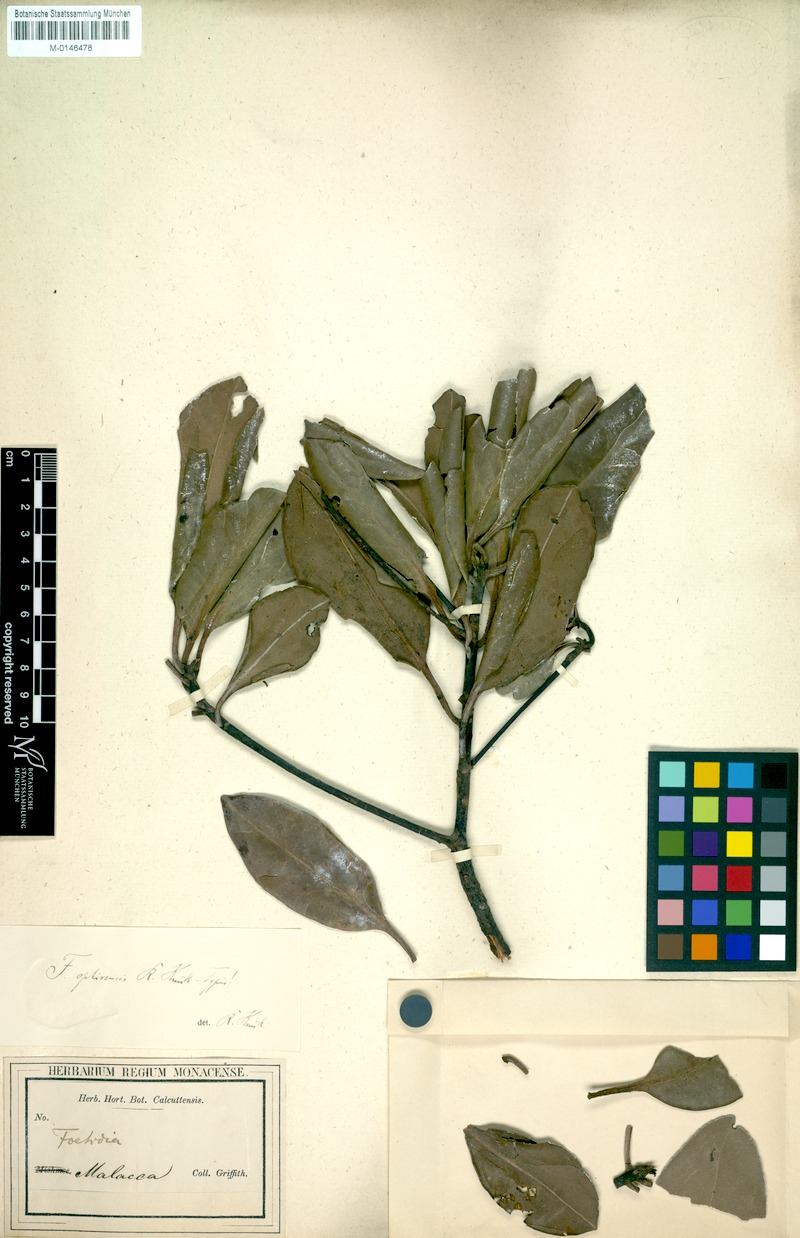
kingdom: Plantae
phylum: Tracheophyta
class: Magnoliopsida
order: Ericales
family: Pentaphylacaceae
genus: Anneslea
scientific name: Anneslea fragrans
